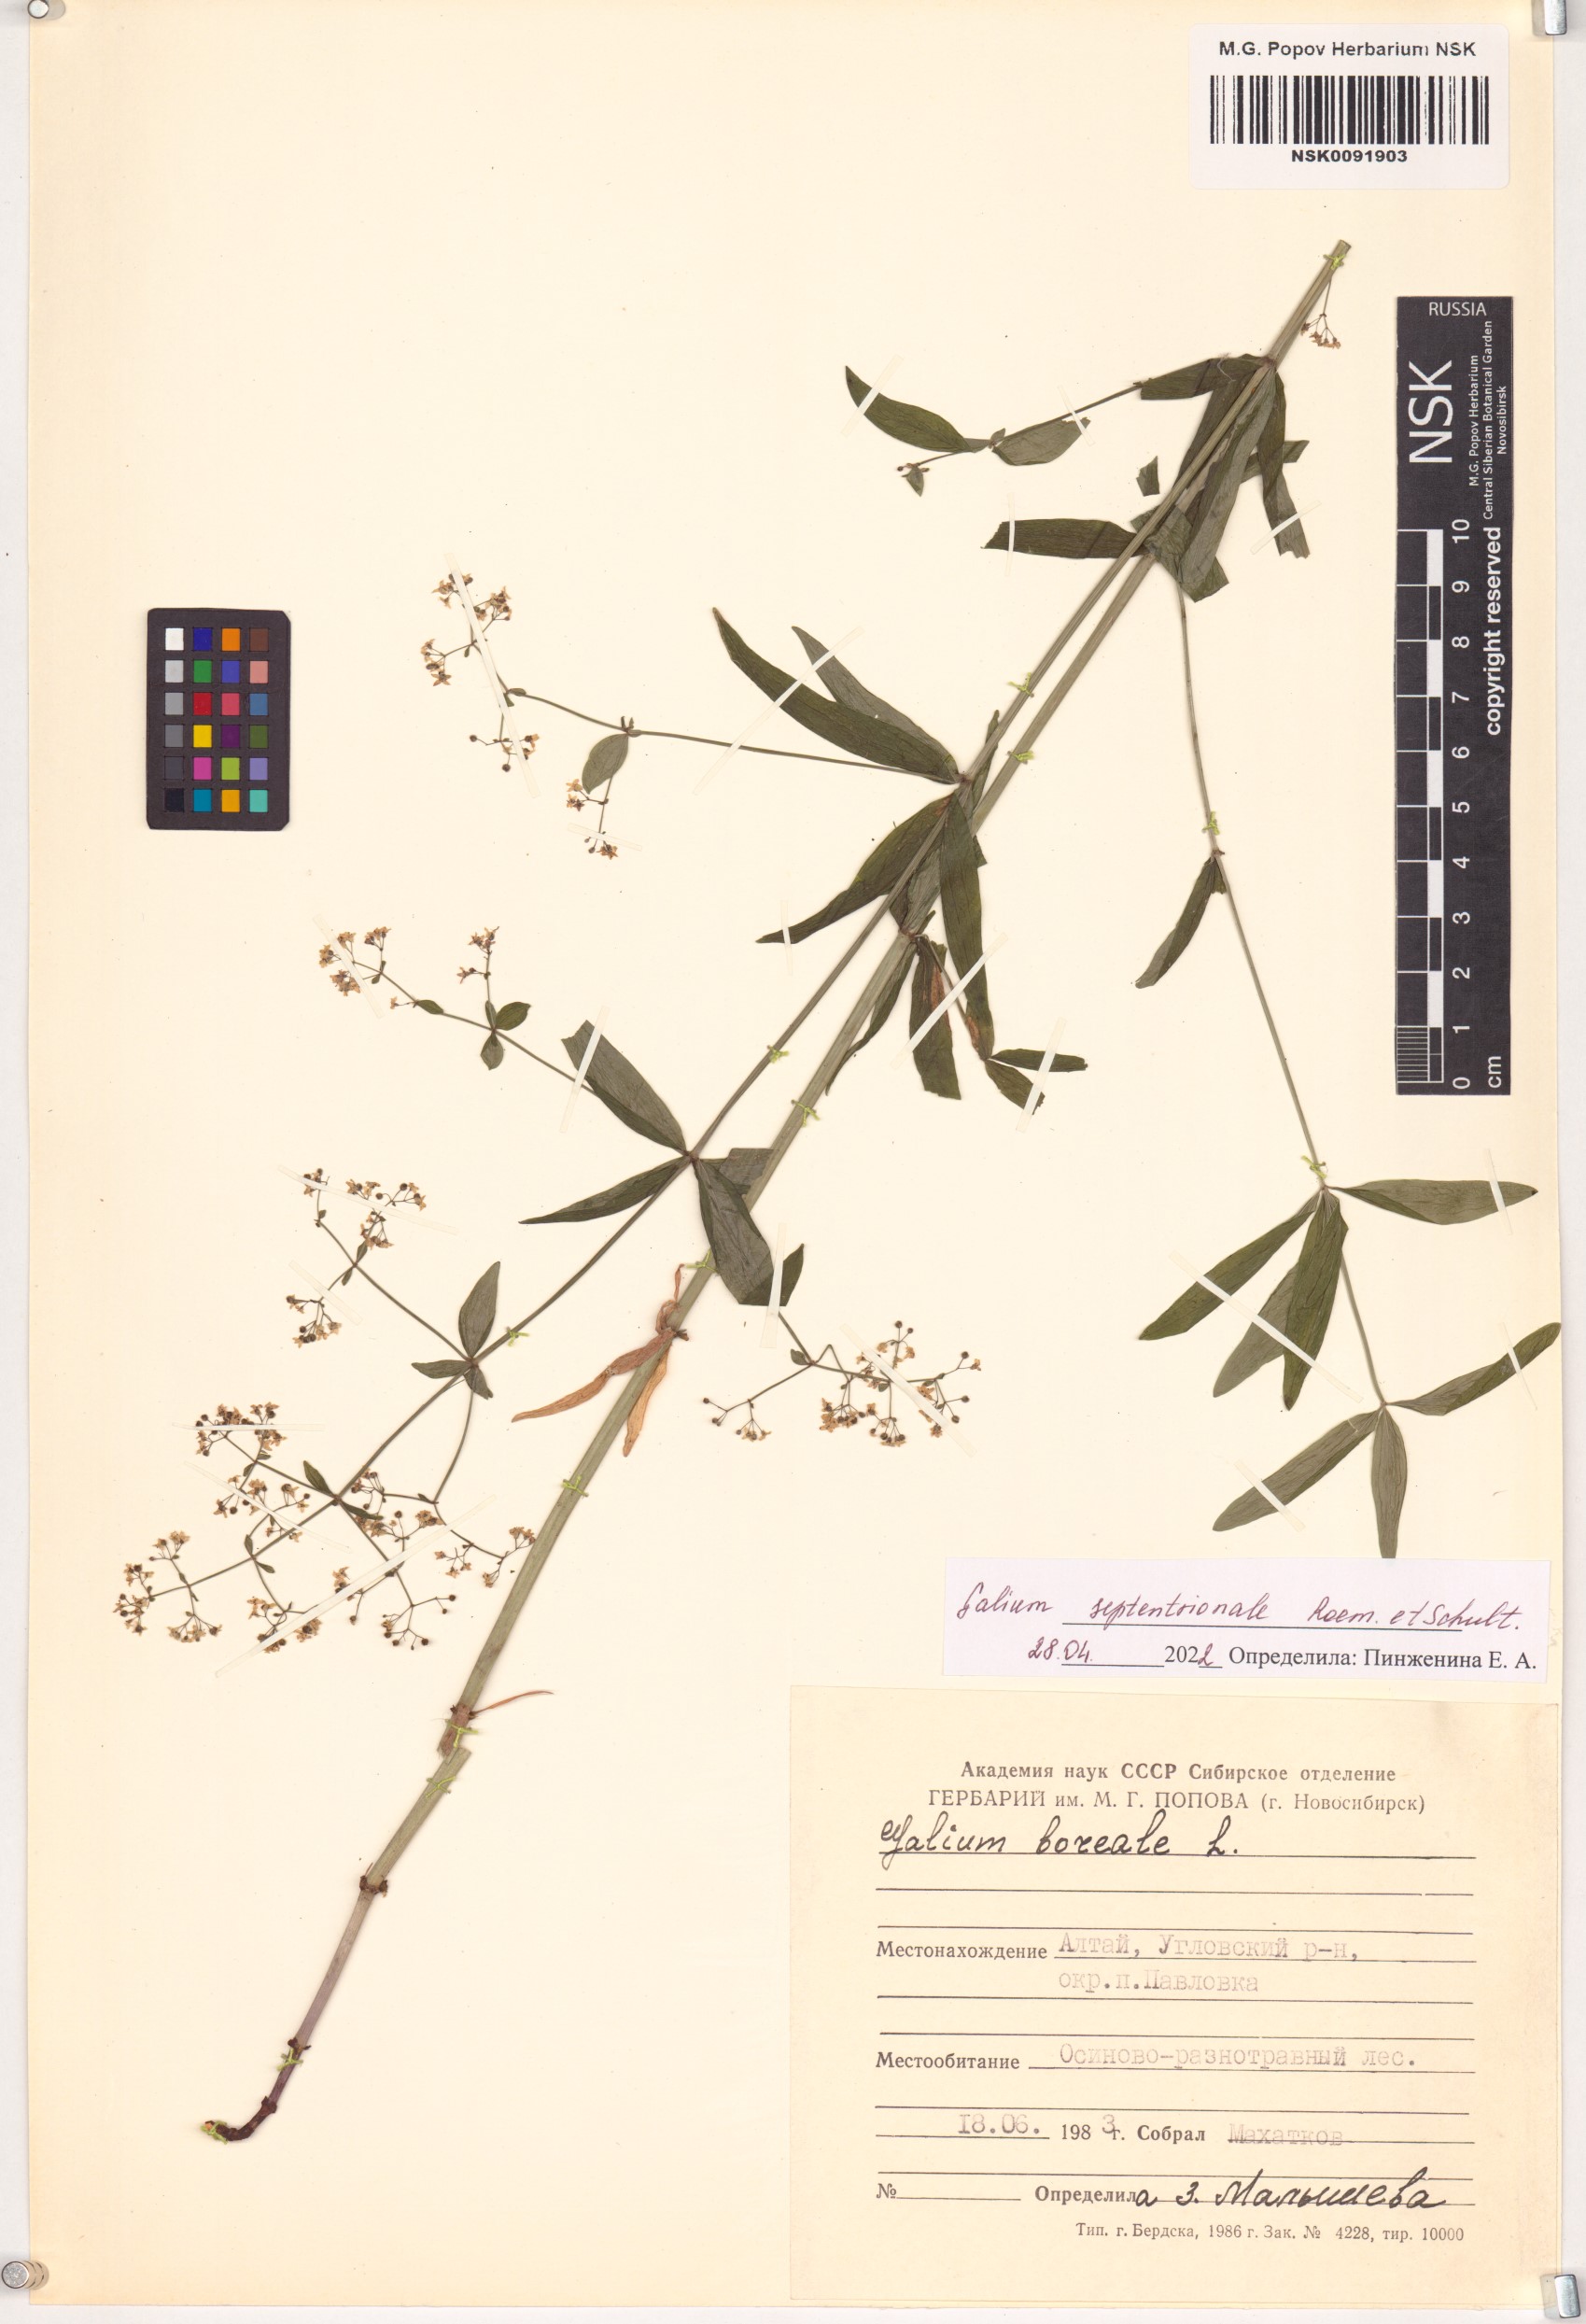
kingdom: Plantae
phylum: Tracheophyta
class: Magnoliopsida
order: Gentianales
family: Rubiaceae
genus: Galium
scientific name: Galium boreale
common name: Northern bedstraw
